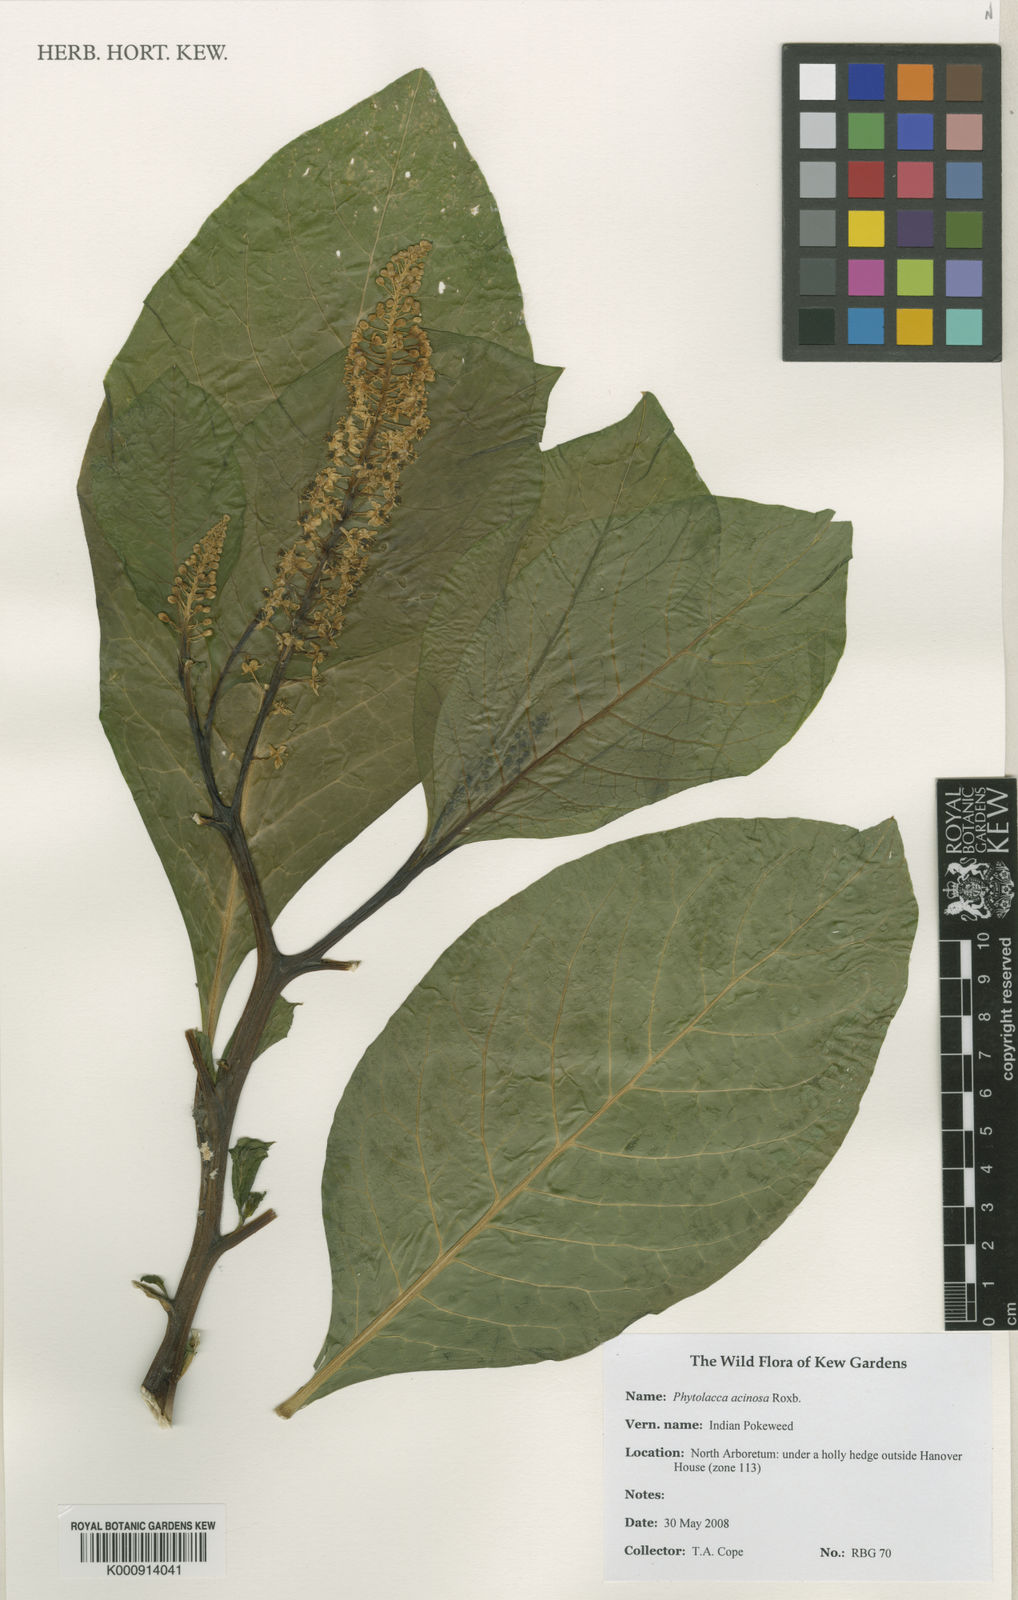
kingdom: Plantae
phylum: Tracheophyta
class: Magnoliopsida
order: Caryophyllales
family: Phytolaccaceae
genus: Phytolacca
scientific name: Phytolacca acinosa
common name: Indian pokeweed
